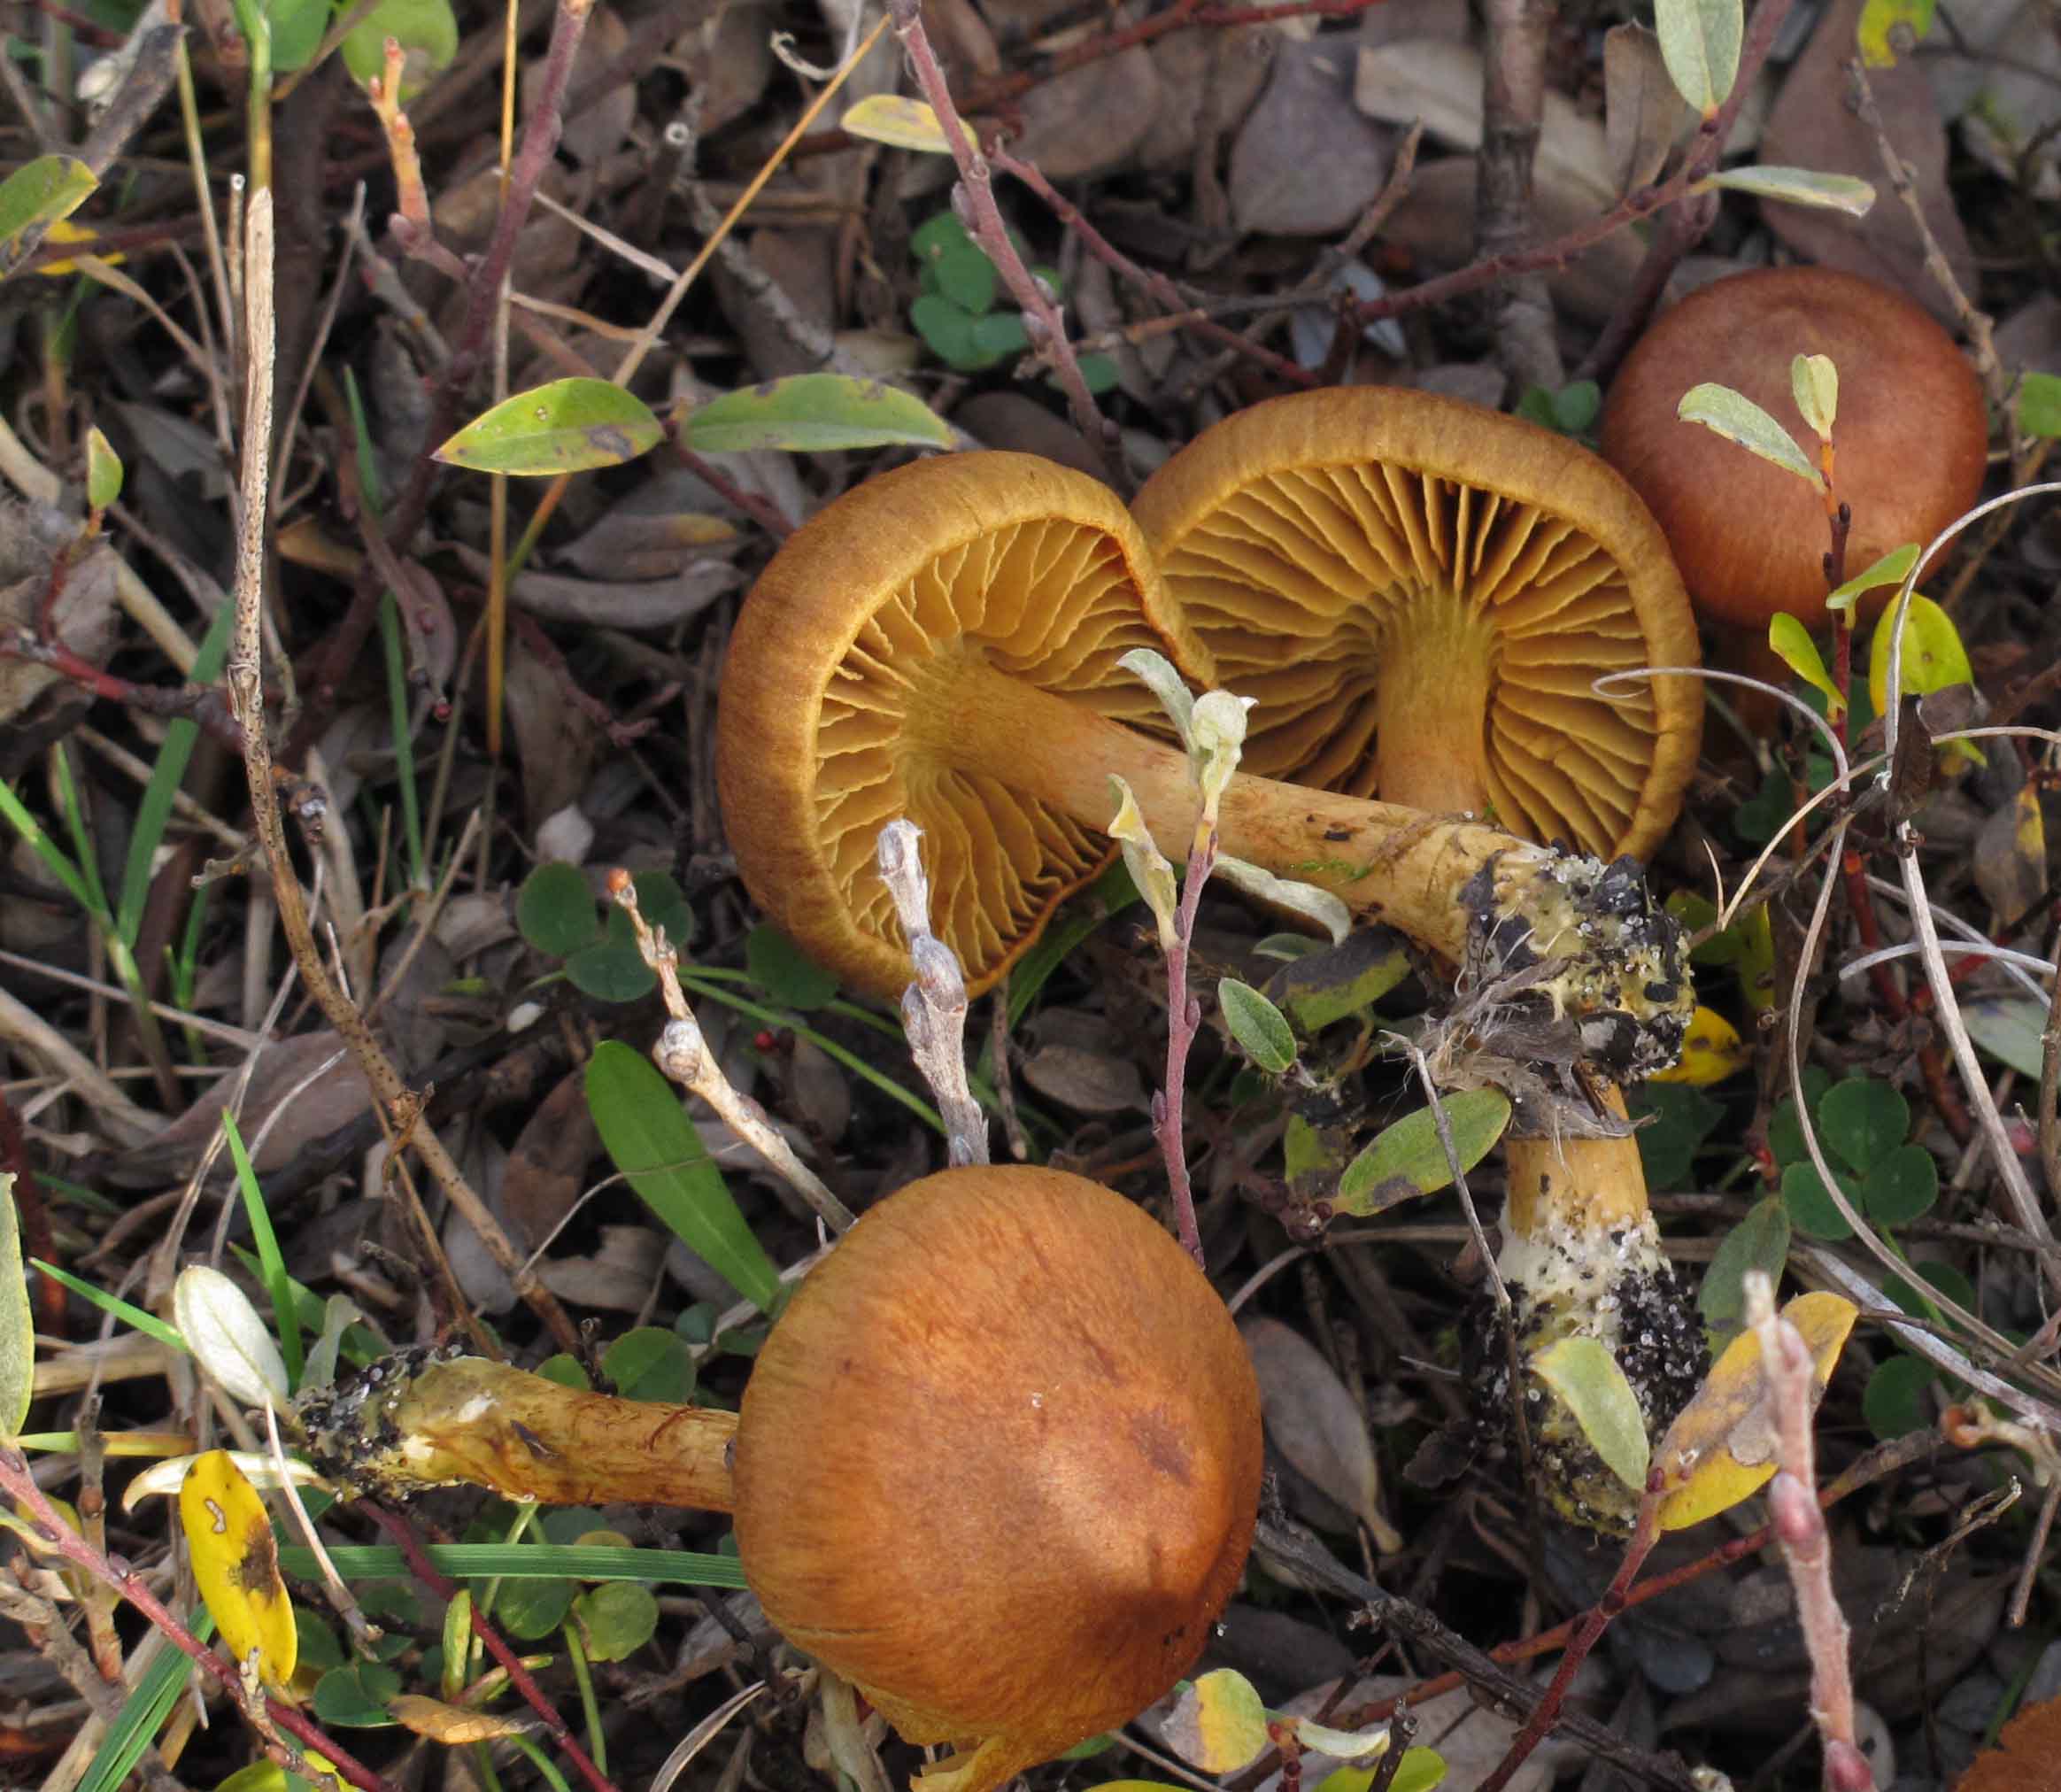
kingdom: Fungi
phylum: Basidiomycota
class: Agaricomycetes
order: Agaricales
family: Cortinariaceae
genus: Cortinarius
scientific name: Cortinarius uliginosus
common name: mose-slørhat
